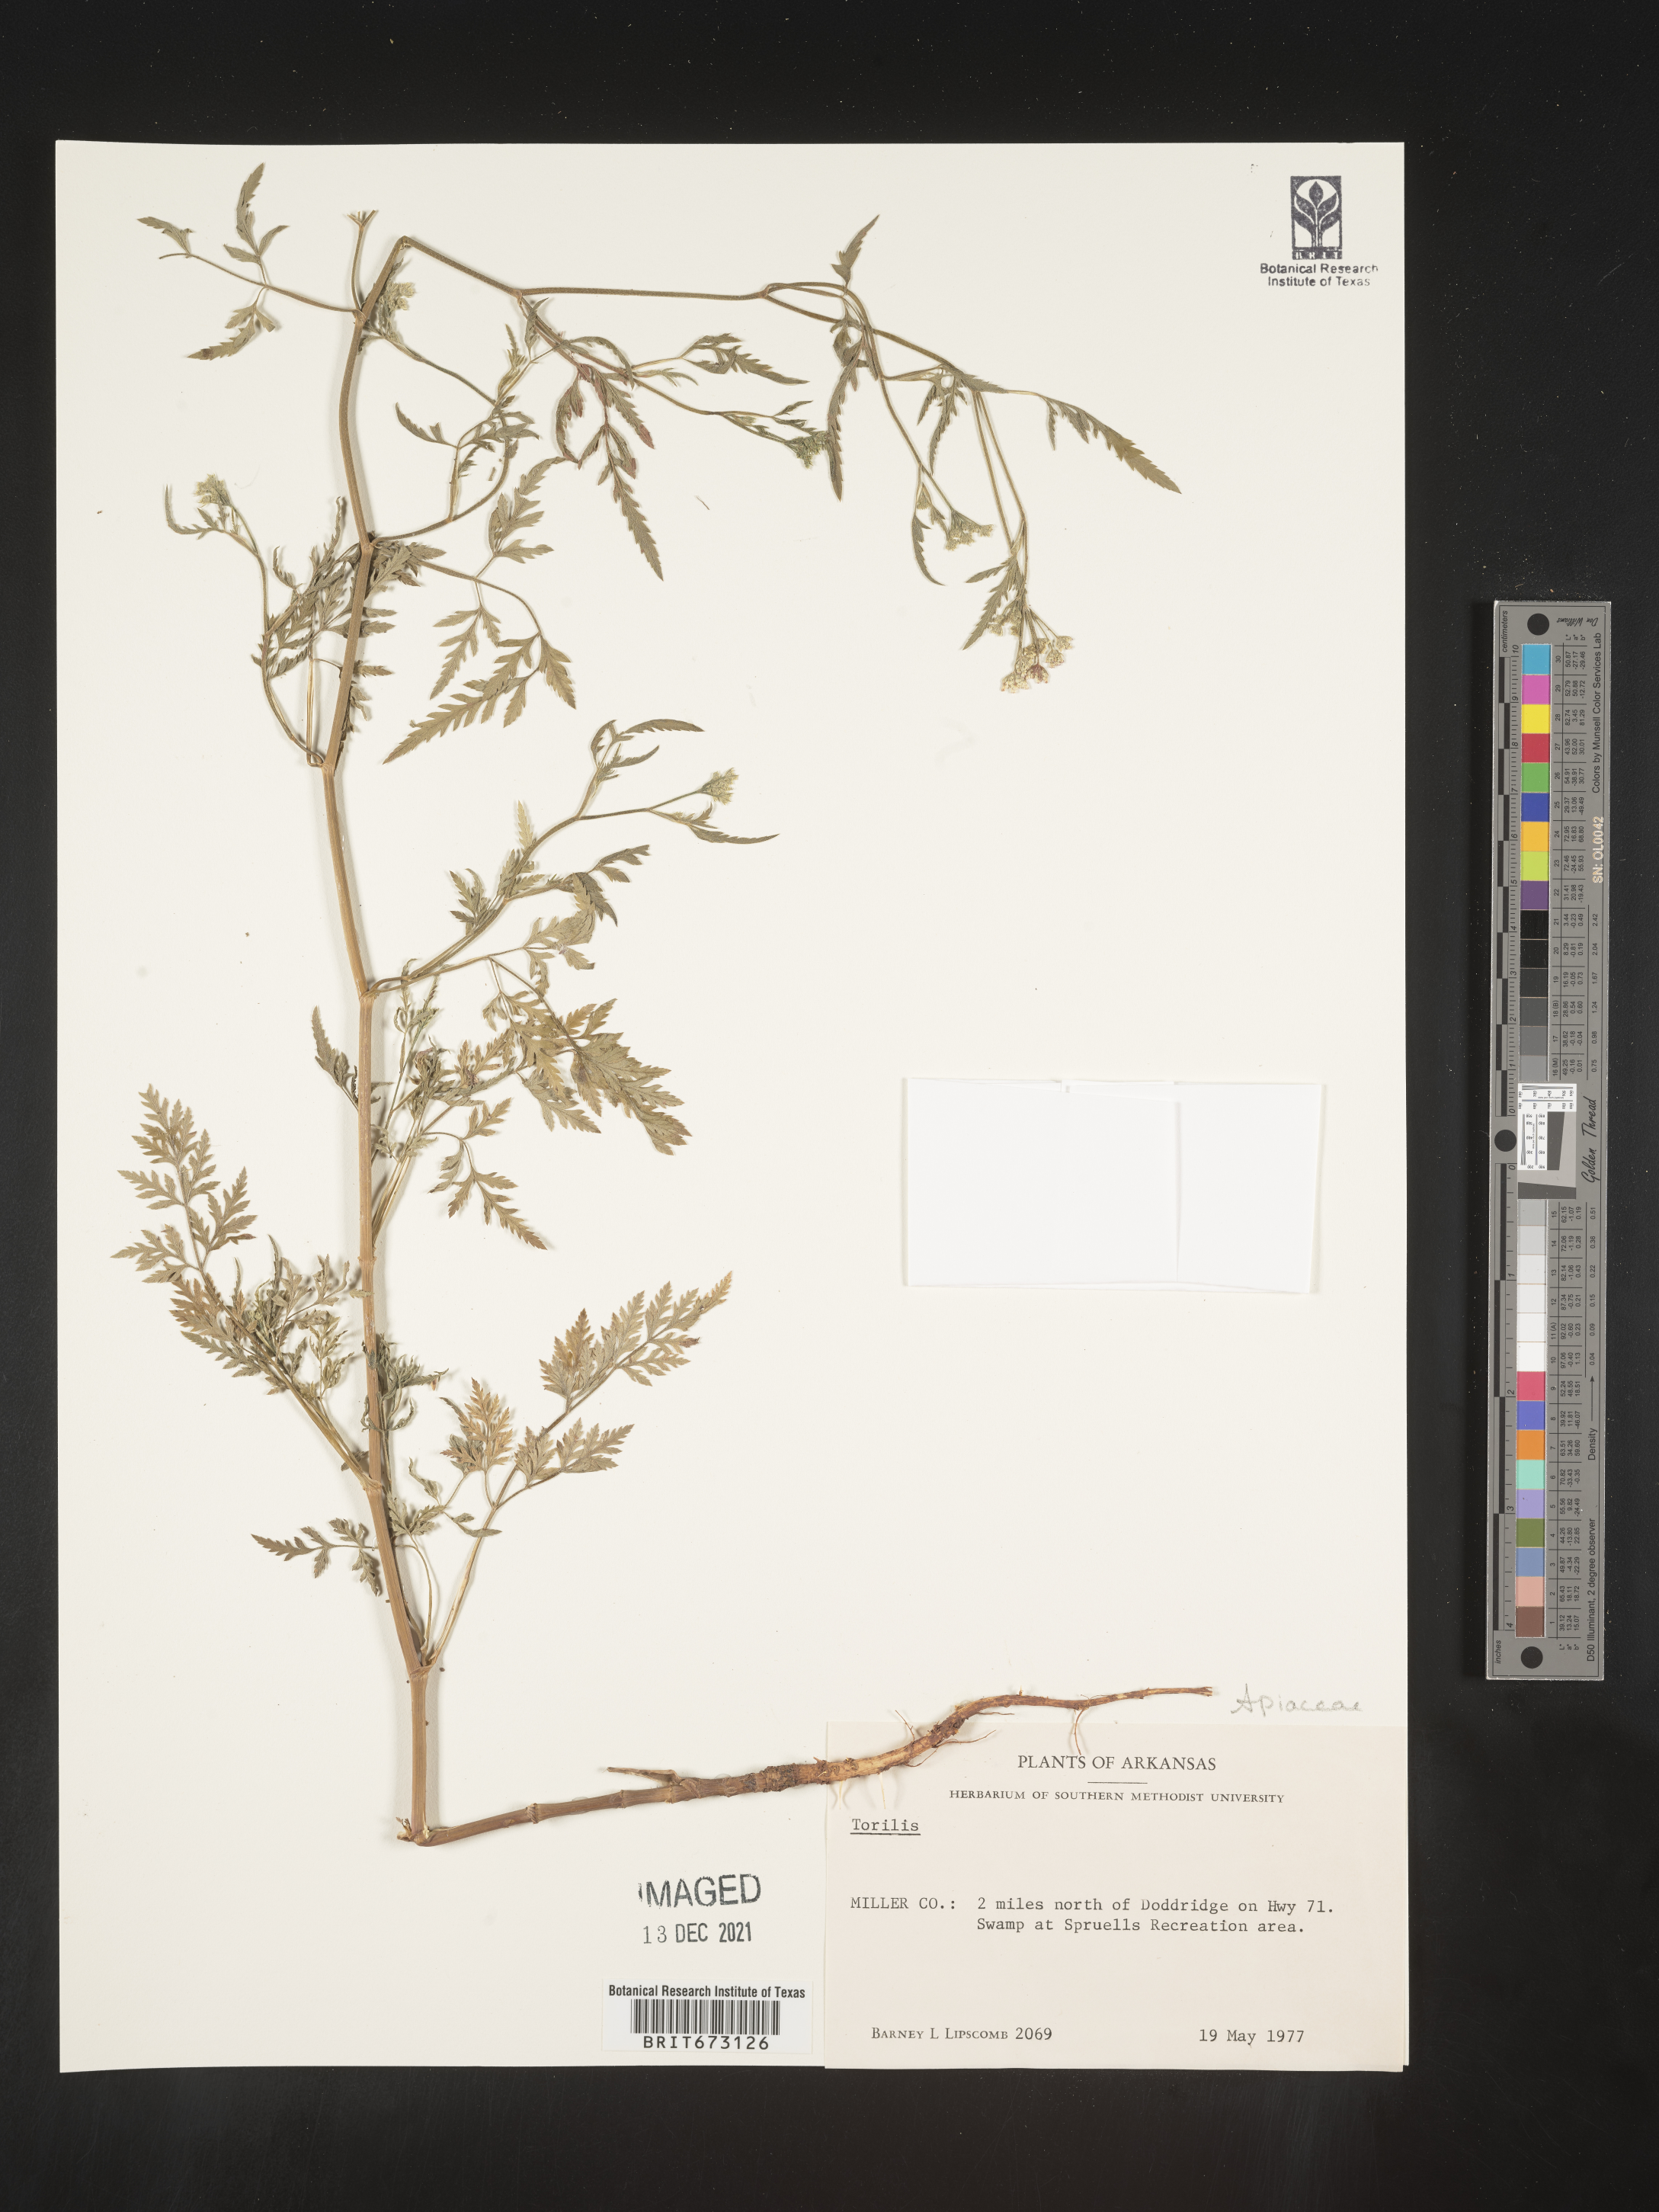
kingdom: Plantae
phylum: Tracheophyta
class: Magnoliopsida
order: Apiales
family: Apiaceae
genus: Torilis
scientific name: Torilis nodosa
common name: Knotted hedge-parsley
